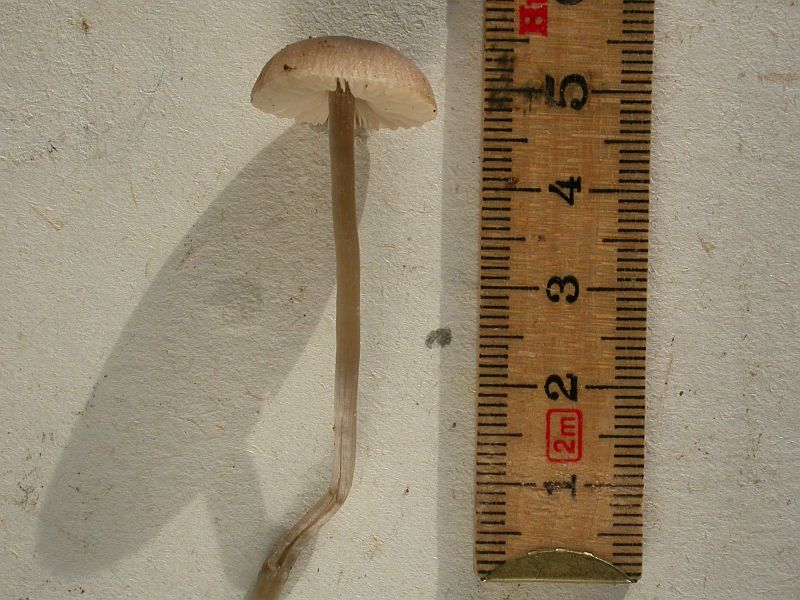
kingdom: Fungi
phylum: Basidiomycota
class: Agaricomycetes
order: Agaricales
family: Lyophyllaceae
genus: Sagaranella
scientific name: Sagaranella tylicolor
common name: kvælstof-gråblad
